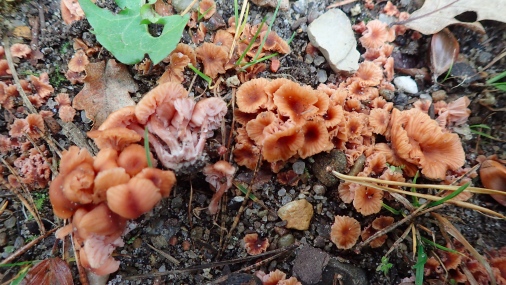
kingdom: Fungi
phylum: Basidiomycota
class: Agaricomycetes
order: Agaricales
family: Hydnangiaceae
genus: Laccaria
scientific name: Laccaria tortilis
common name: krybende ametysthat
